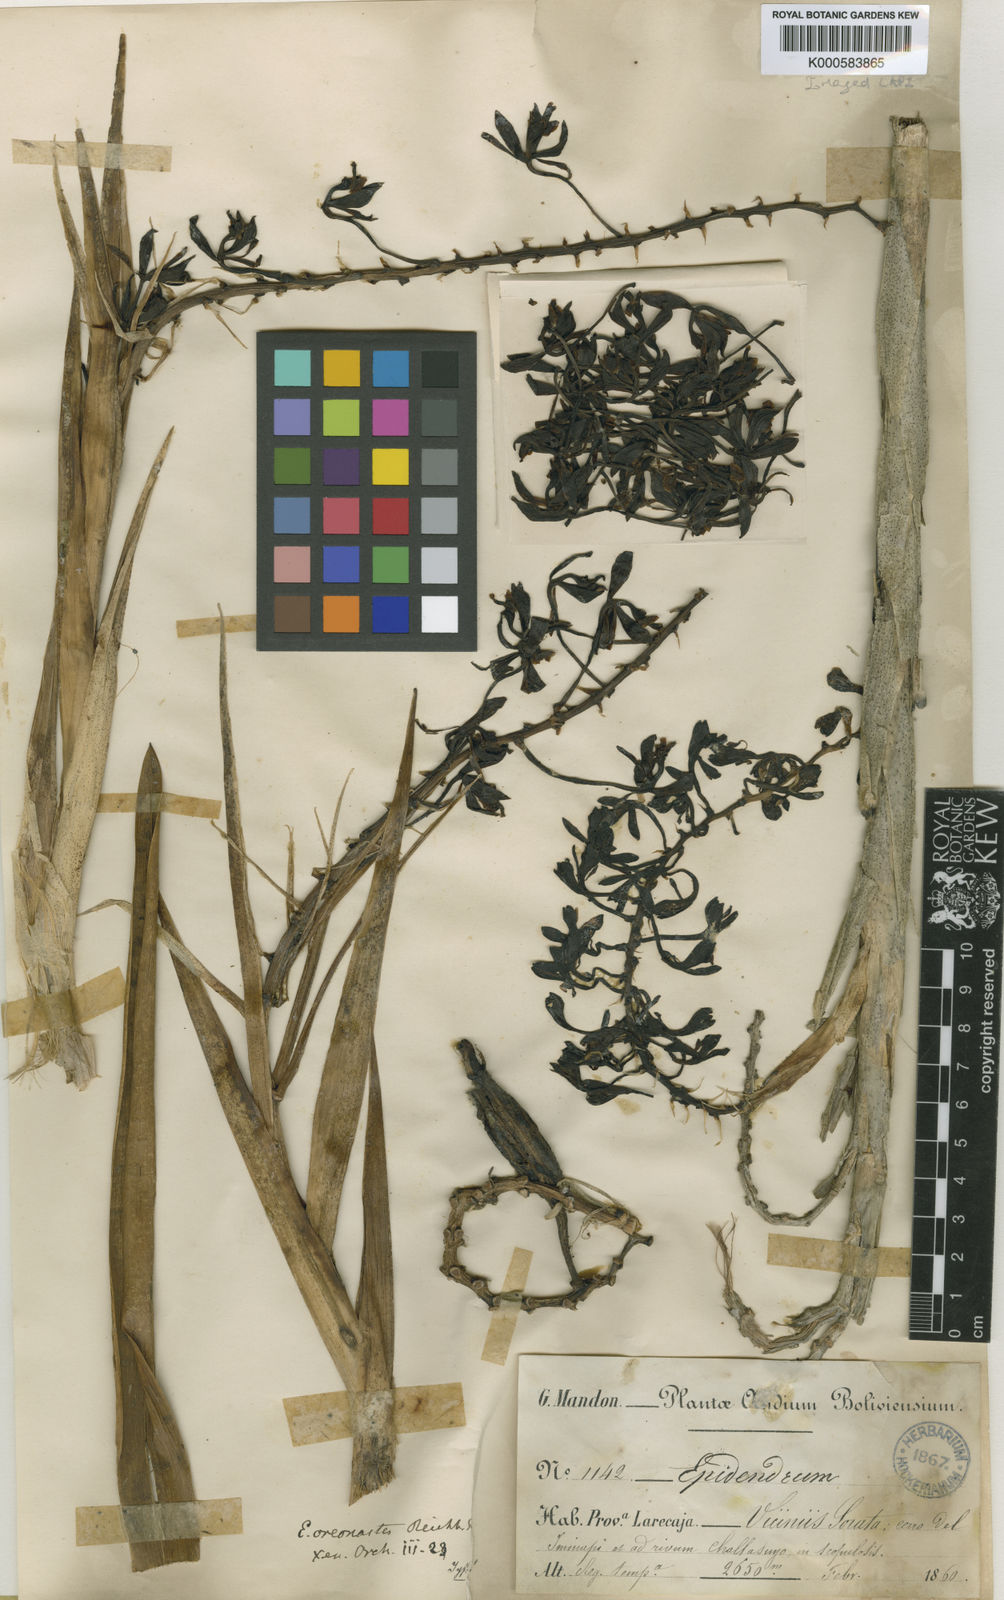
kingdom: Plantae
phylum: Tracheophyta
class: Liliopsida
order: Asparagales
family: Orchidaceae
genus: Epidendrum
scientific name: Epidendrum oreonastes
